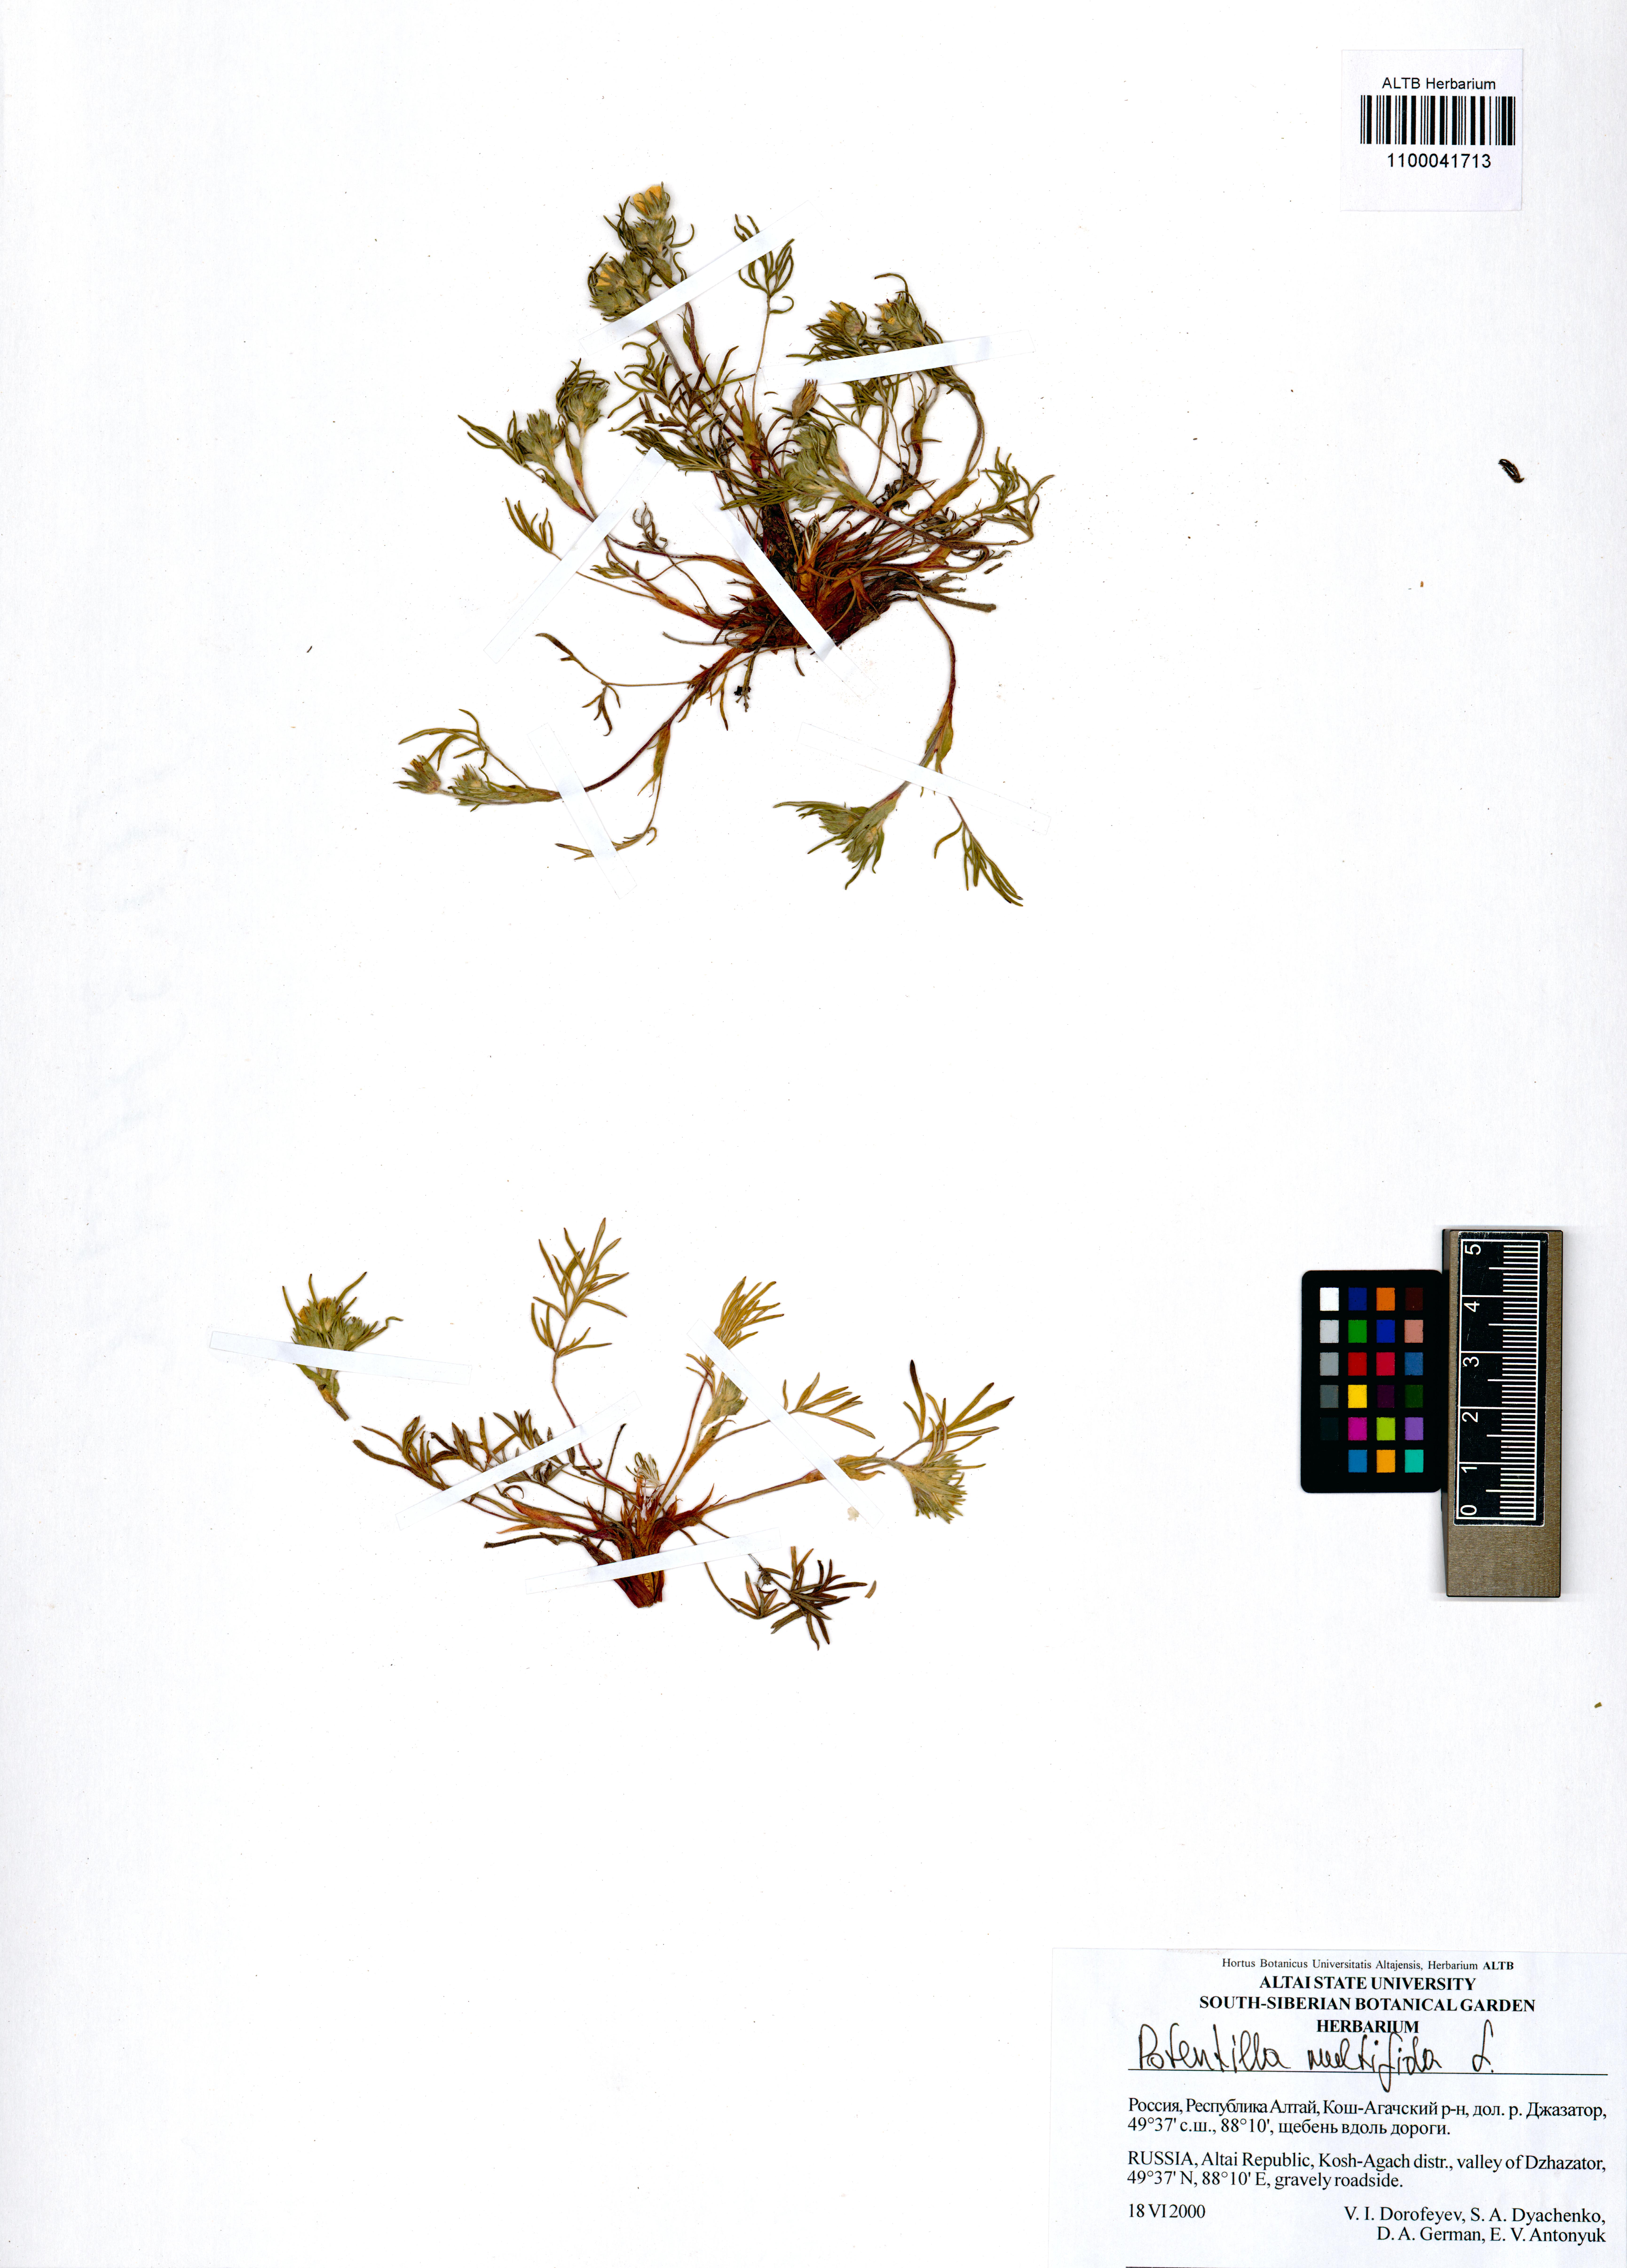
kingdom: Plantae
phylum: Tracheophyta
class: Magnoliopsida
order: Rosales
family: Rosaceae
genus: Potentilla
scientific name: Potentilla multifida
